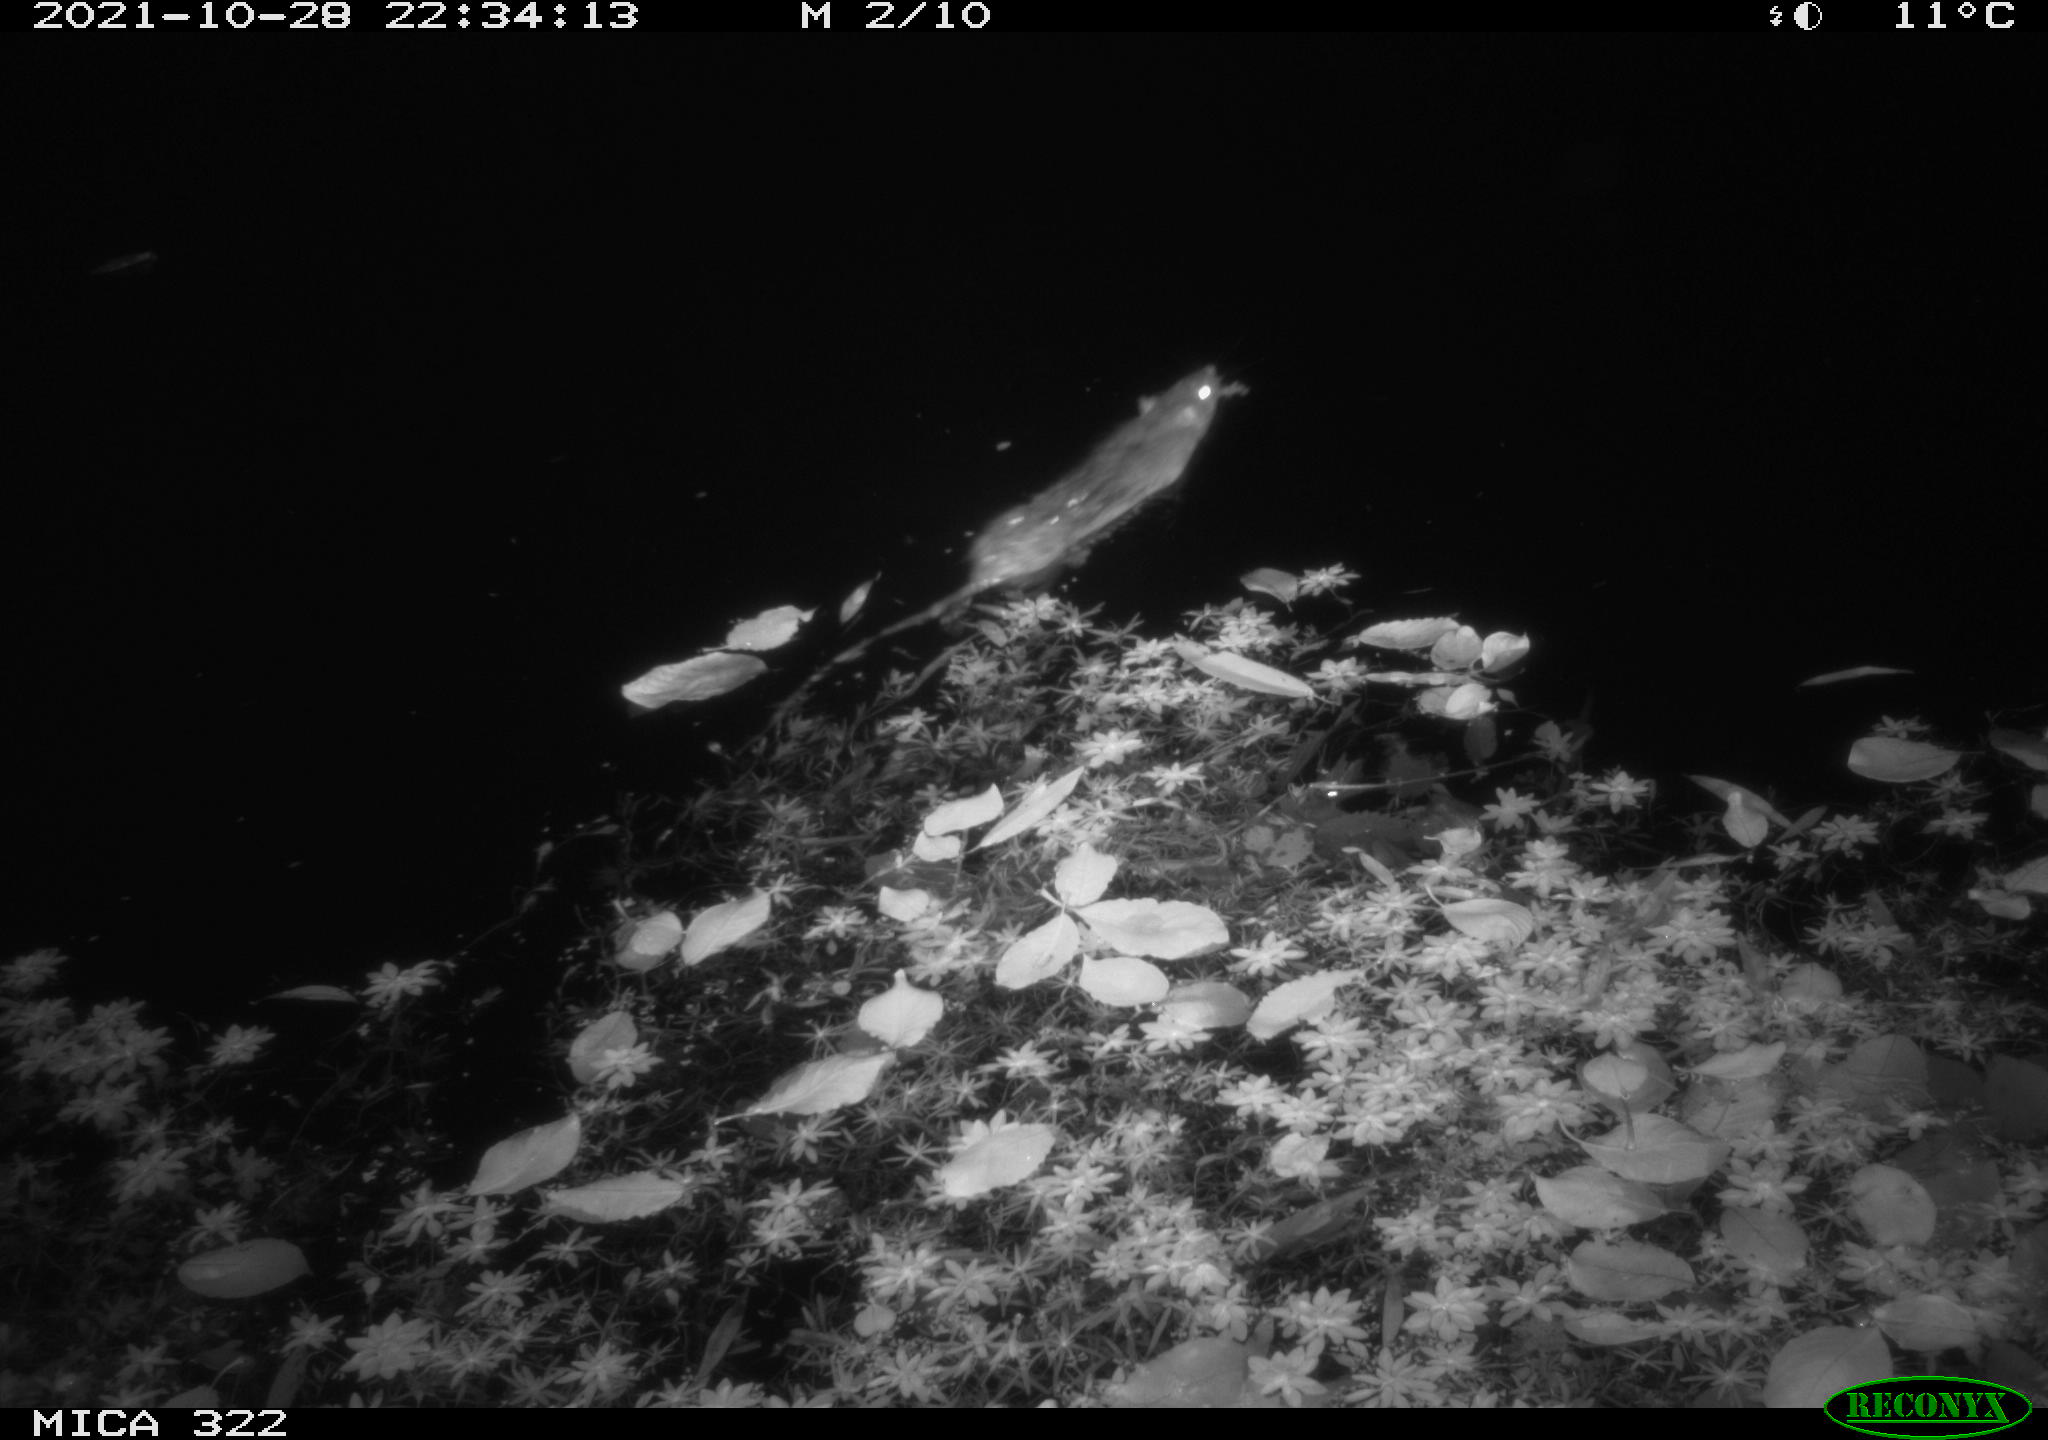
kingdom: Animalia
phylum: Chordata
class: Mammalia
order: Rodentia
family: Muridae
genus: Rattus
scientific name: Rattus norvegicus
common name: Brown rat
